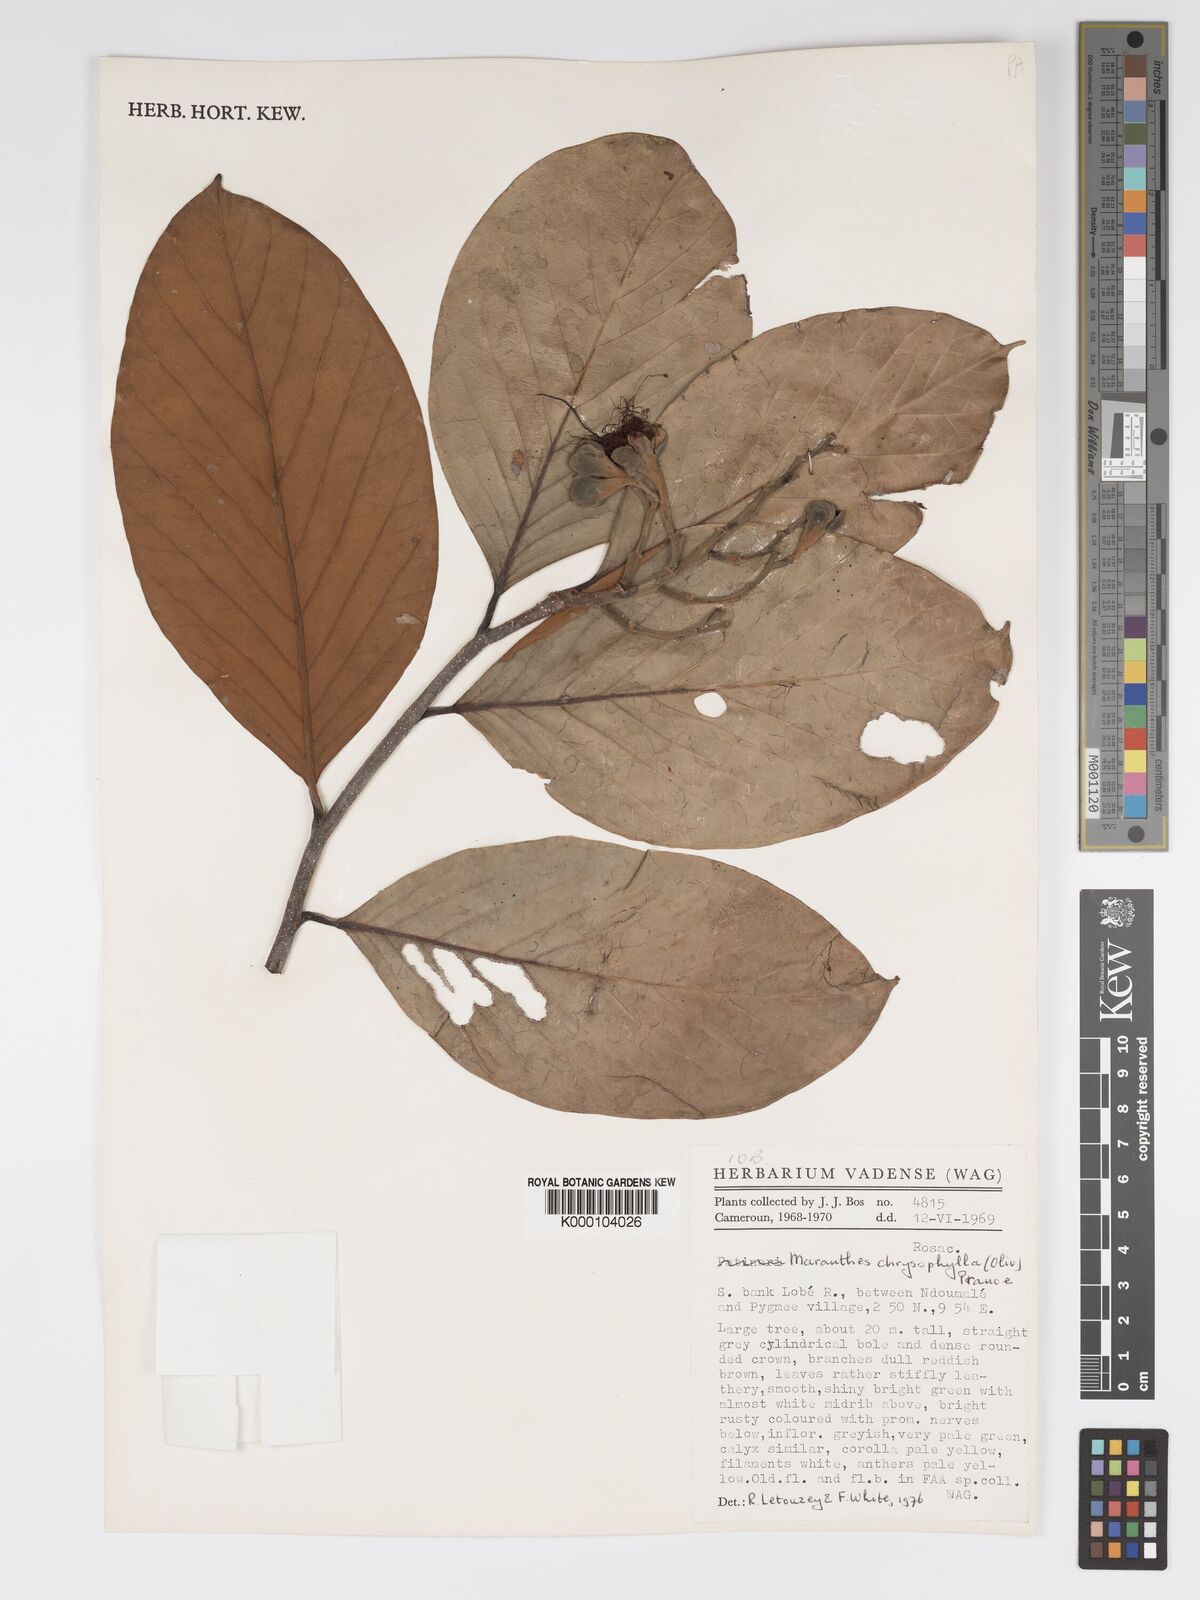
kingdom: Plantae
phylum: Tracheophyta
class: Magnoliopsida
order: Malpighiales
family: Chrysobalanaceae
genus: Maranthes
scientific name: Maranthes
